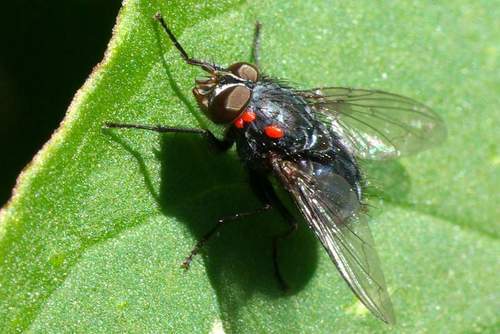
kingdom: Animalia
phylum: Arthropoda
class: Insecta
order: Diptera
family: Calliphoridae
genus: Calliphora
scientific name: Calliphora vicina
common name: Common blow flie
